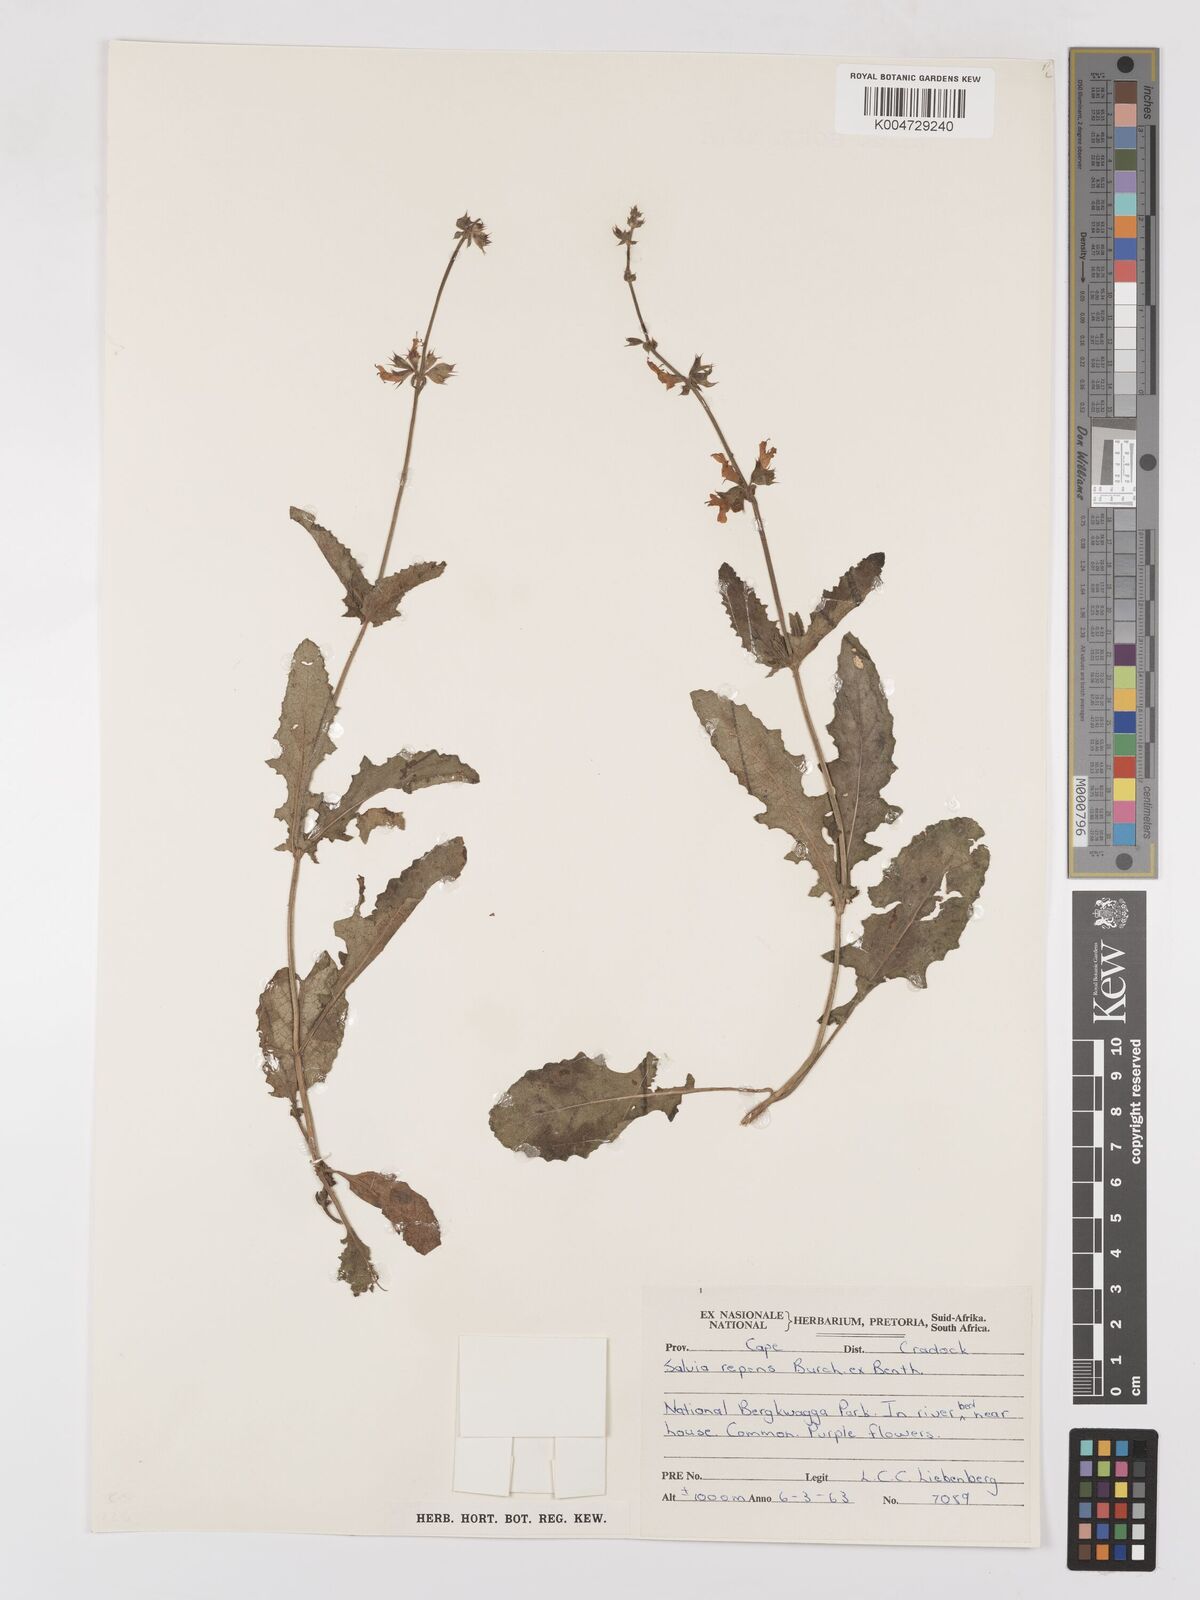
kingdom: Plantae
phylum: Tracheophyta
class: Magnoliopsida
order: Lamiales
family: Lamiaceae
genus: Salvia
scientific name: Salvia repens
